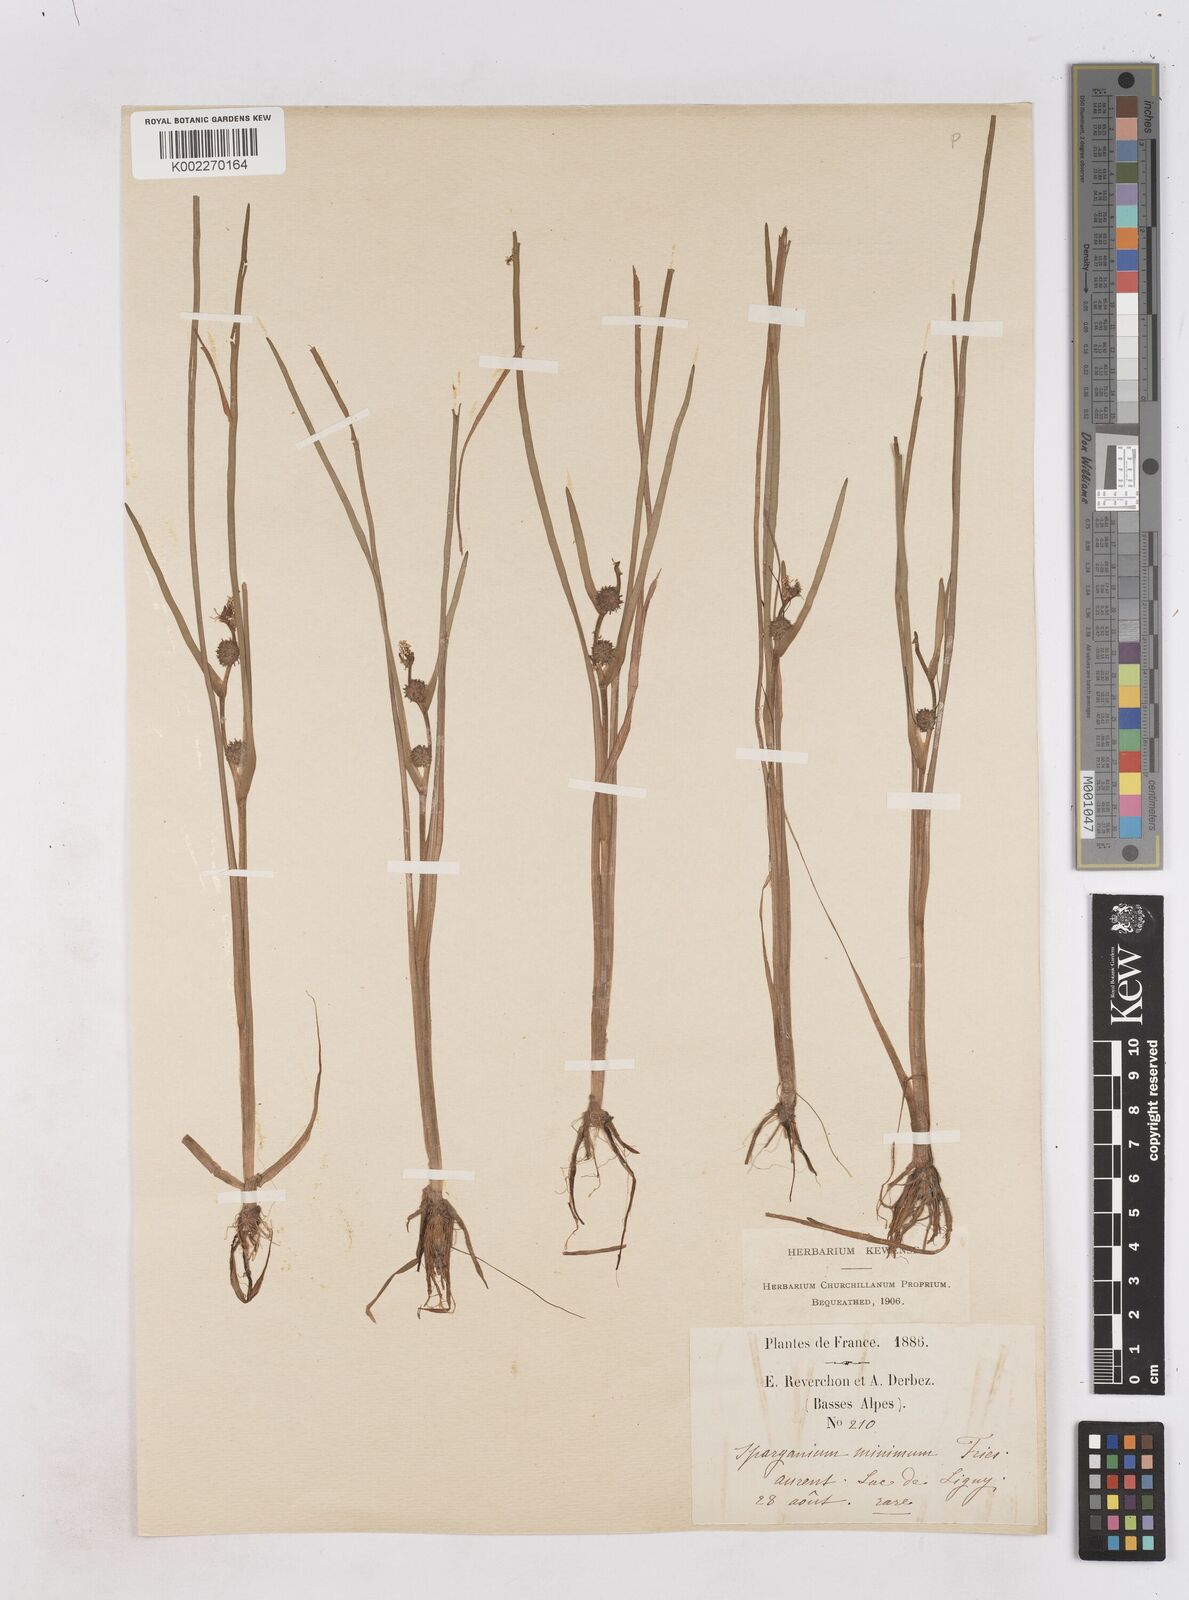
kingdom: Plantae
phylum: Tracheophyta
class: Liliopsida
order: Poales
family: Typhaceae
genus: Sparganium
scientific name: Sparganium natans
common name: Least bur-reed
